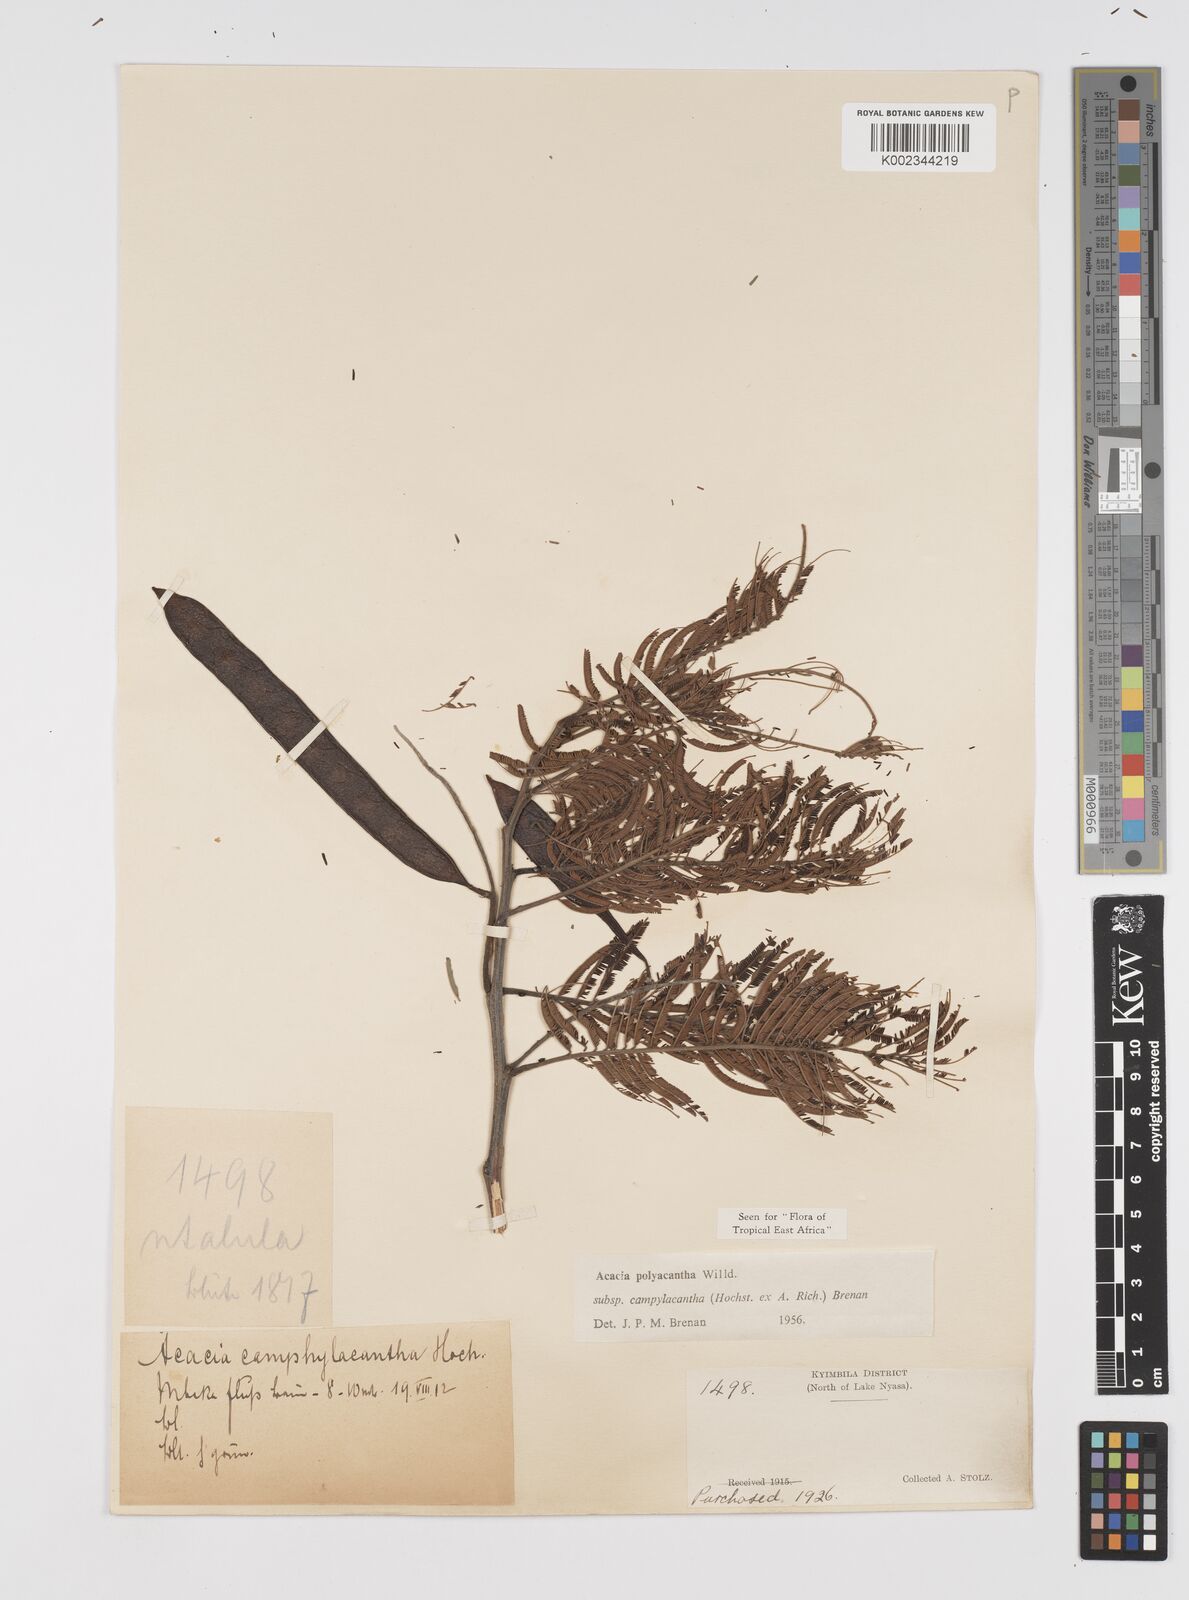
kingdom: Plantae
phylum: Tracheophyta
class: Magnoliopsida
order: Fabales
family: Fabaceae
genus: Senegalia
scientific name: Senegalia polyacantha
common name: Whitethorn
